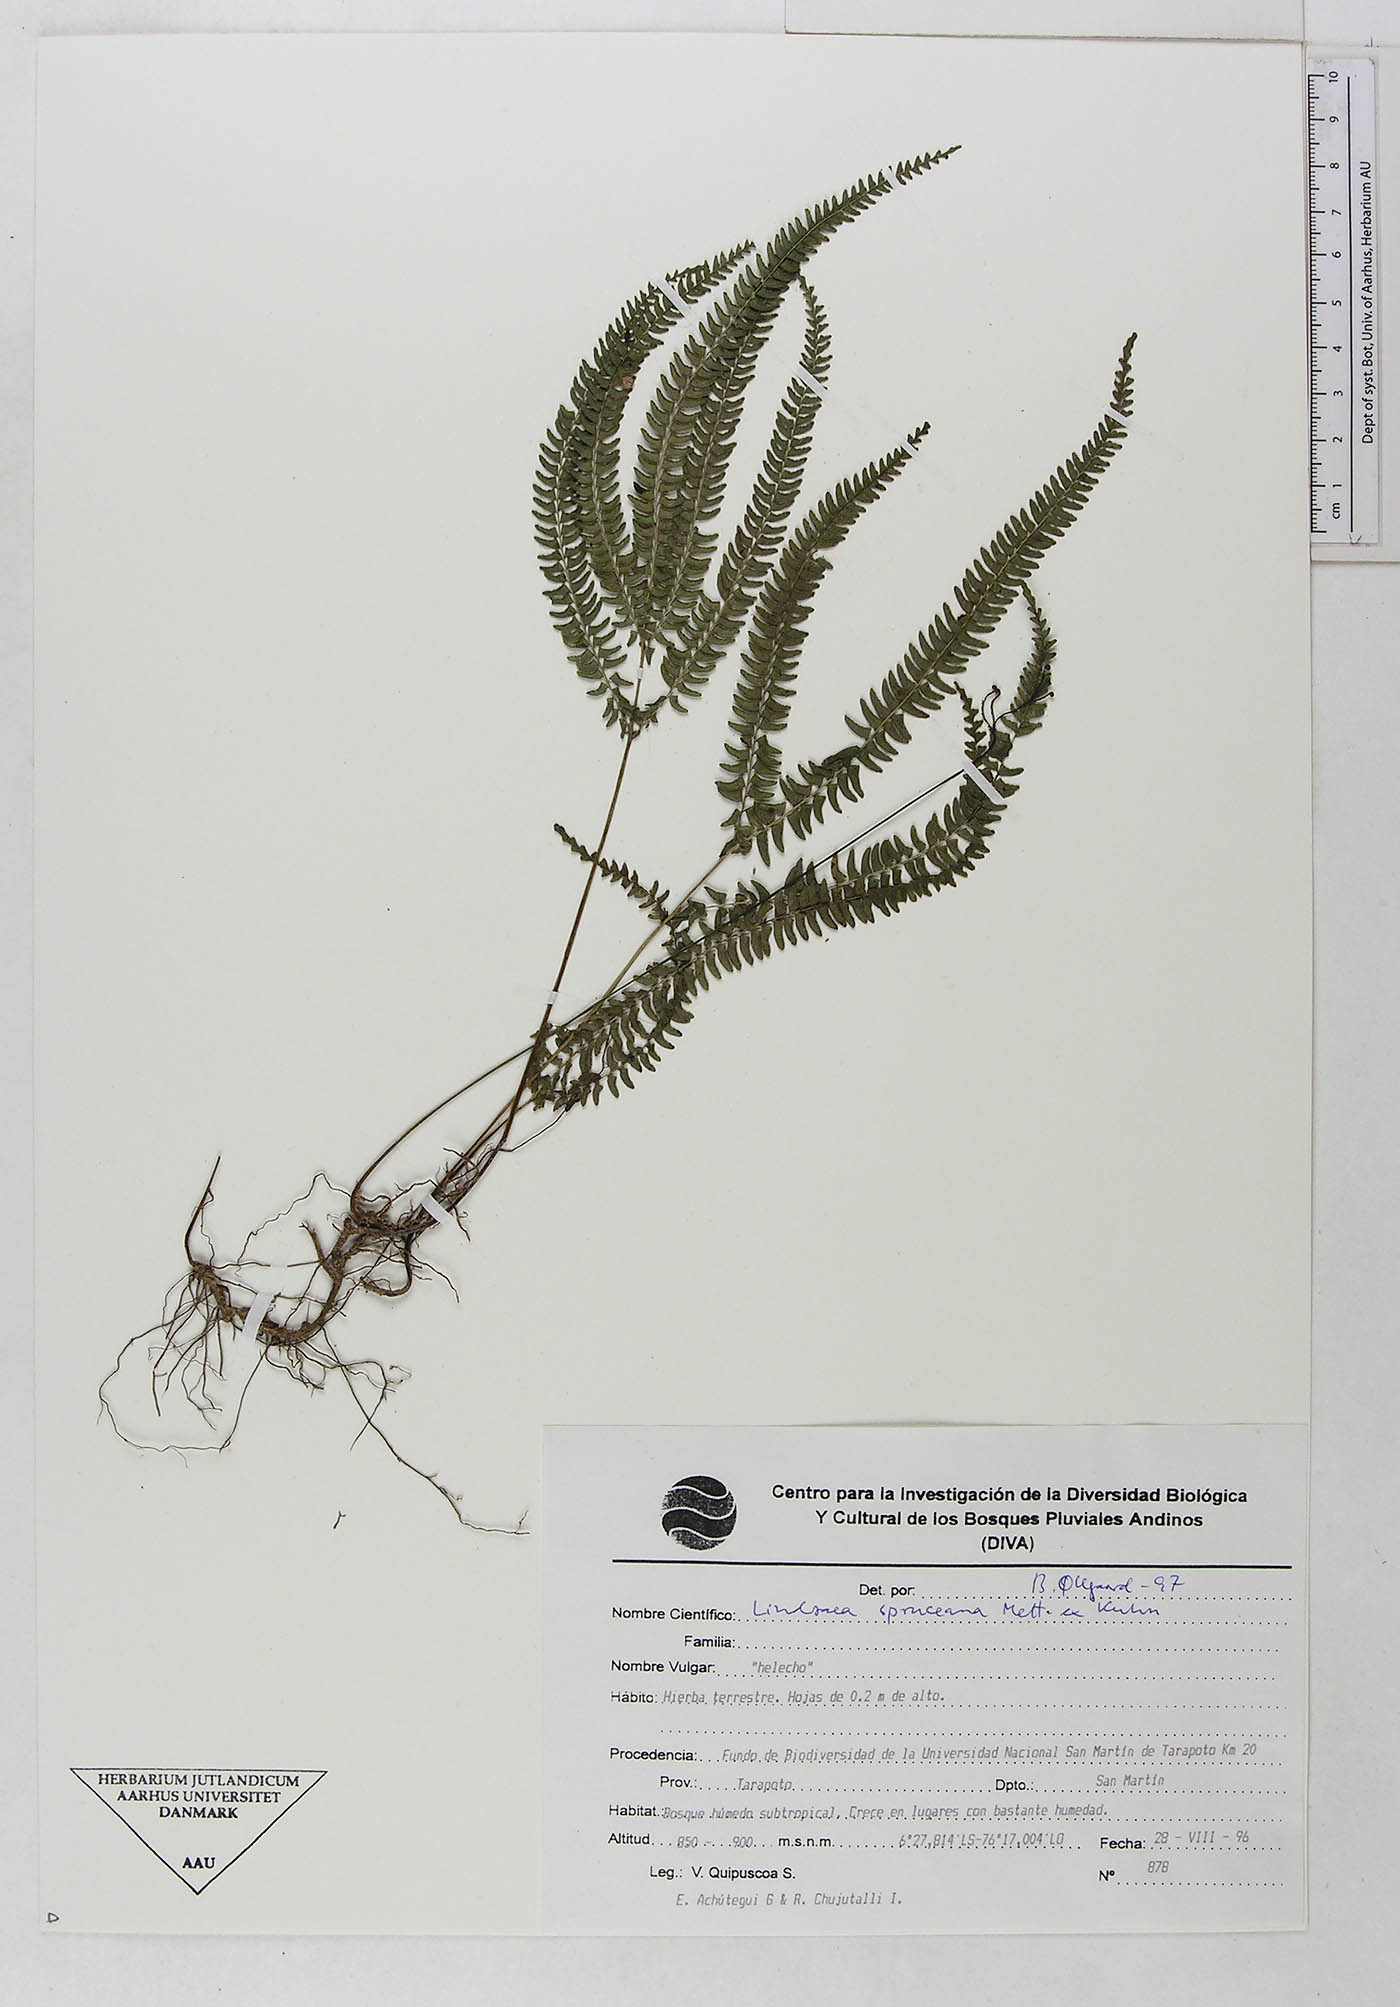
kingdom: Plantae
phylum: Tracheophyta
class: Polypodiopsida
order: Polypodiales
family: Dennstaedtiaceae
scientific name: Dennstaedtiaceae
